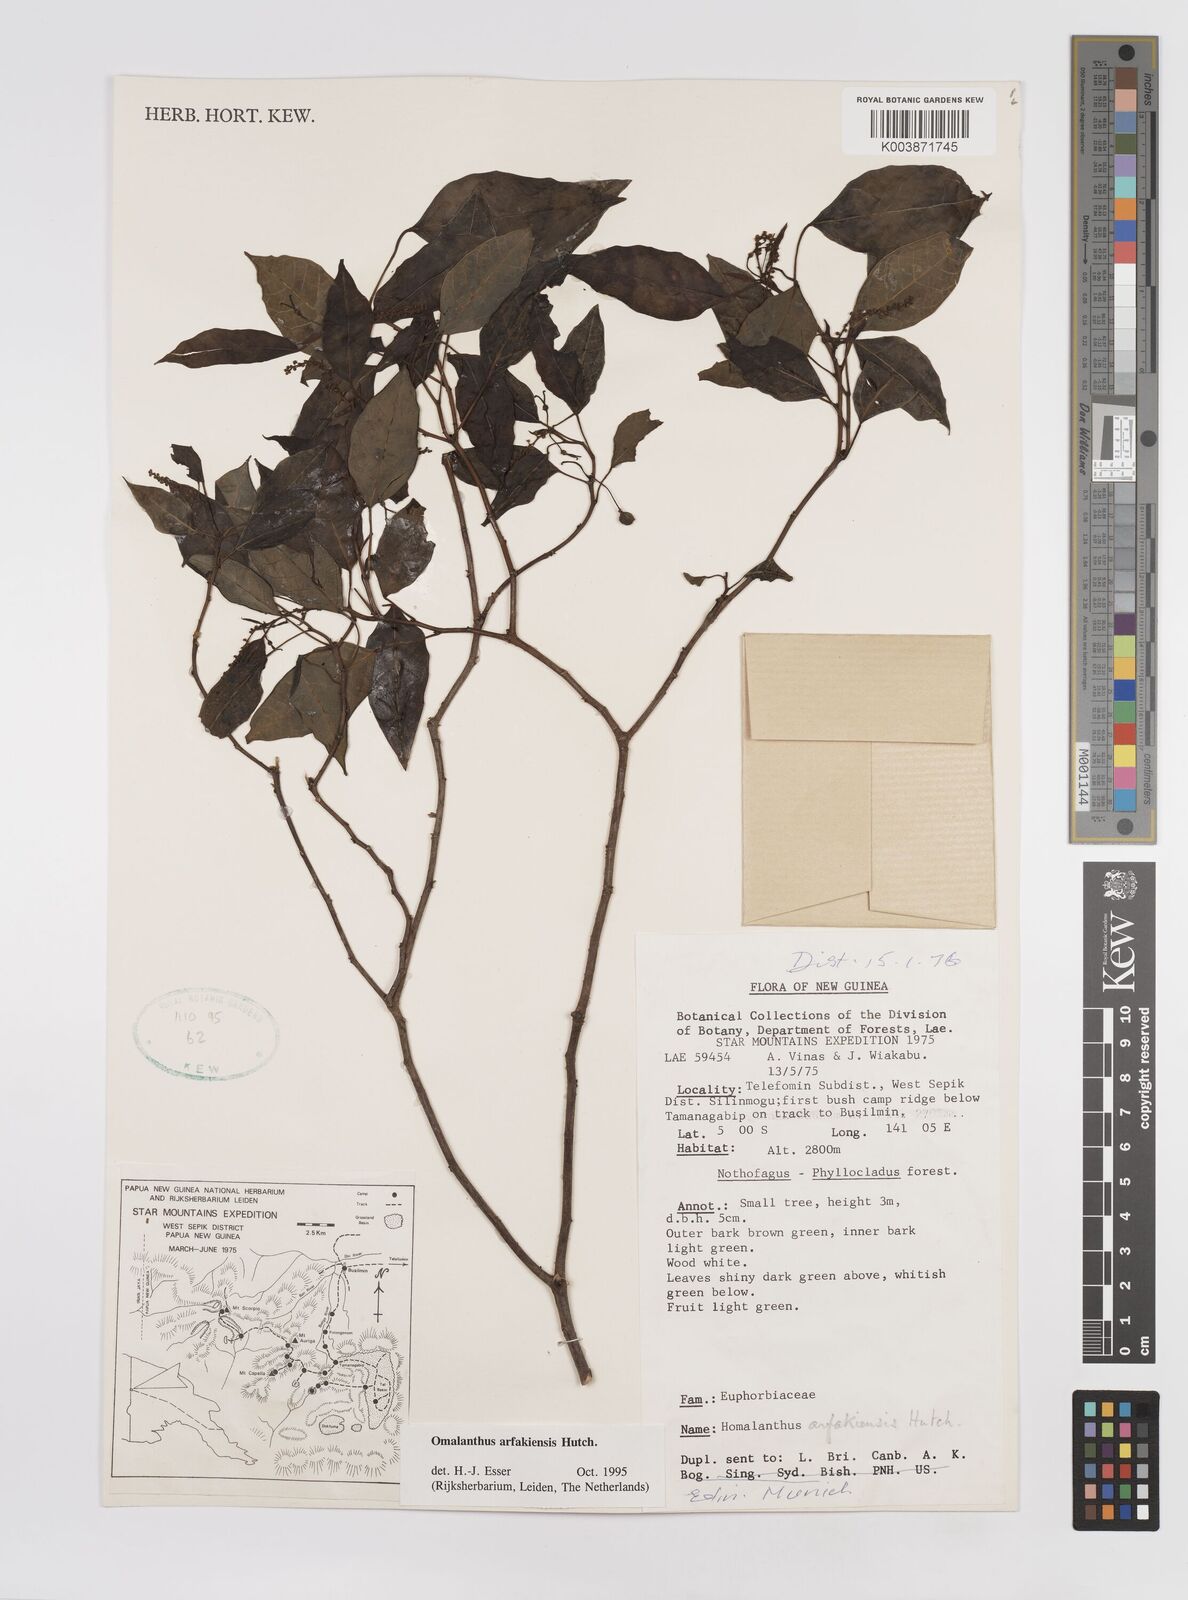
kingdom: Plantae
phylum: Tracheophyta
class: Magnoliopsida
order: Malpighiales
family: Euphorbiaceae
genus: Homalanthus
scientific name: Homalanthus arfakiensis
